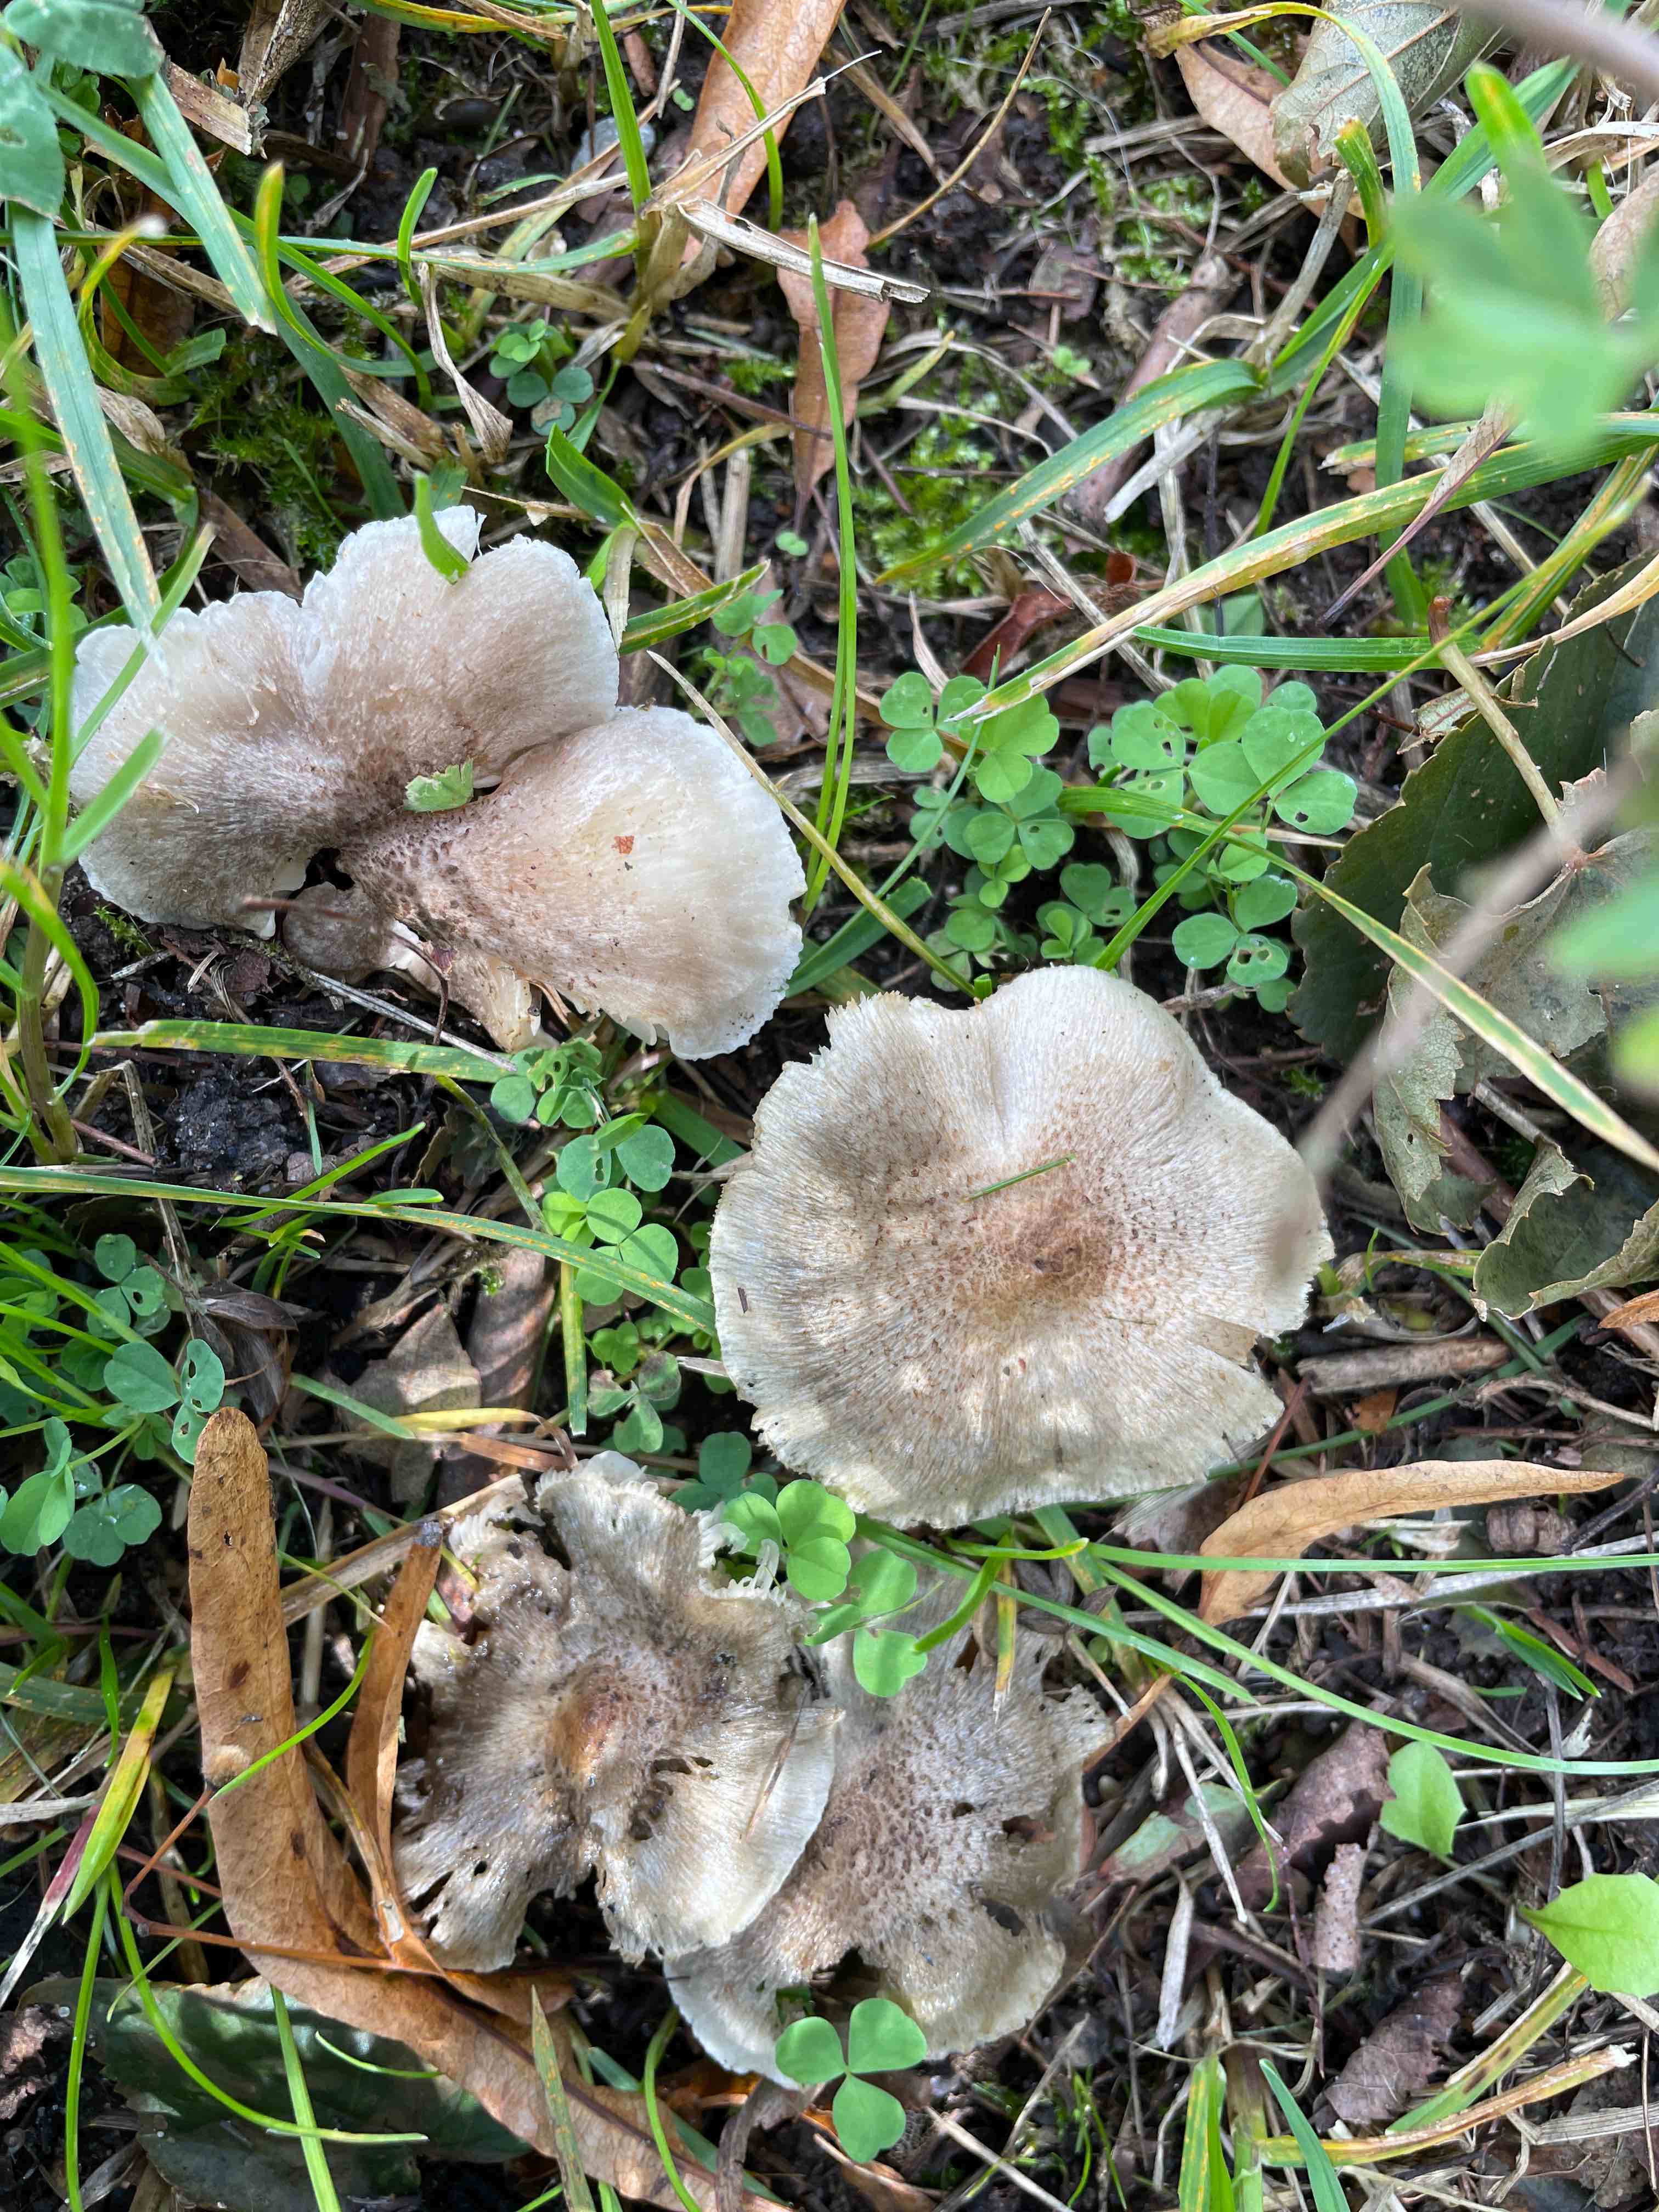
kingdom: Fungi
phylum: Basidiomycota
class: Agaricomycetes
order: Agaricales
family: Tricholomataceae
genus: Tricholoma
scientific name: Tricholoma
